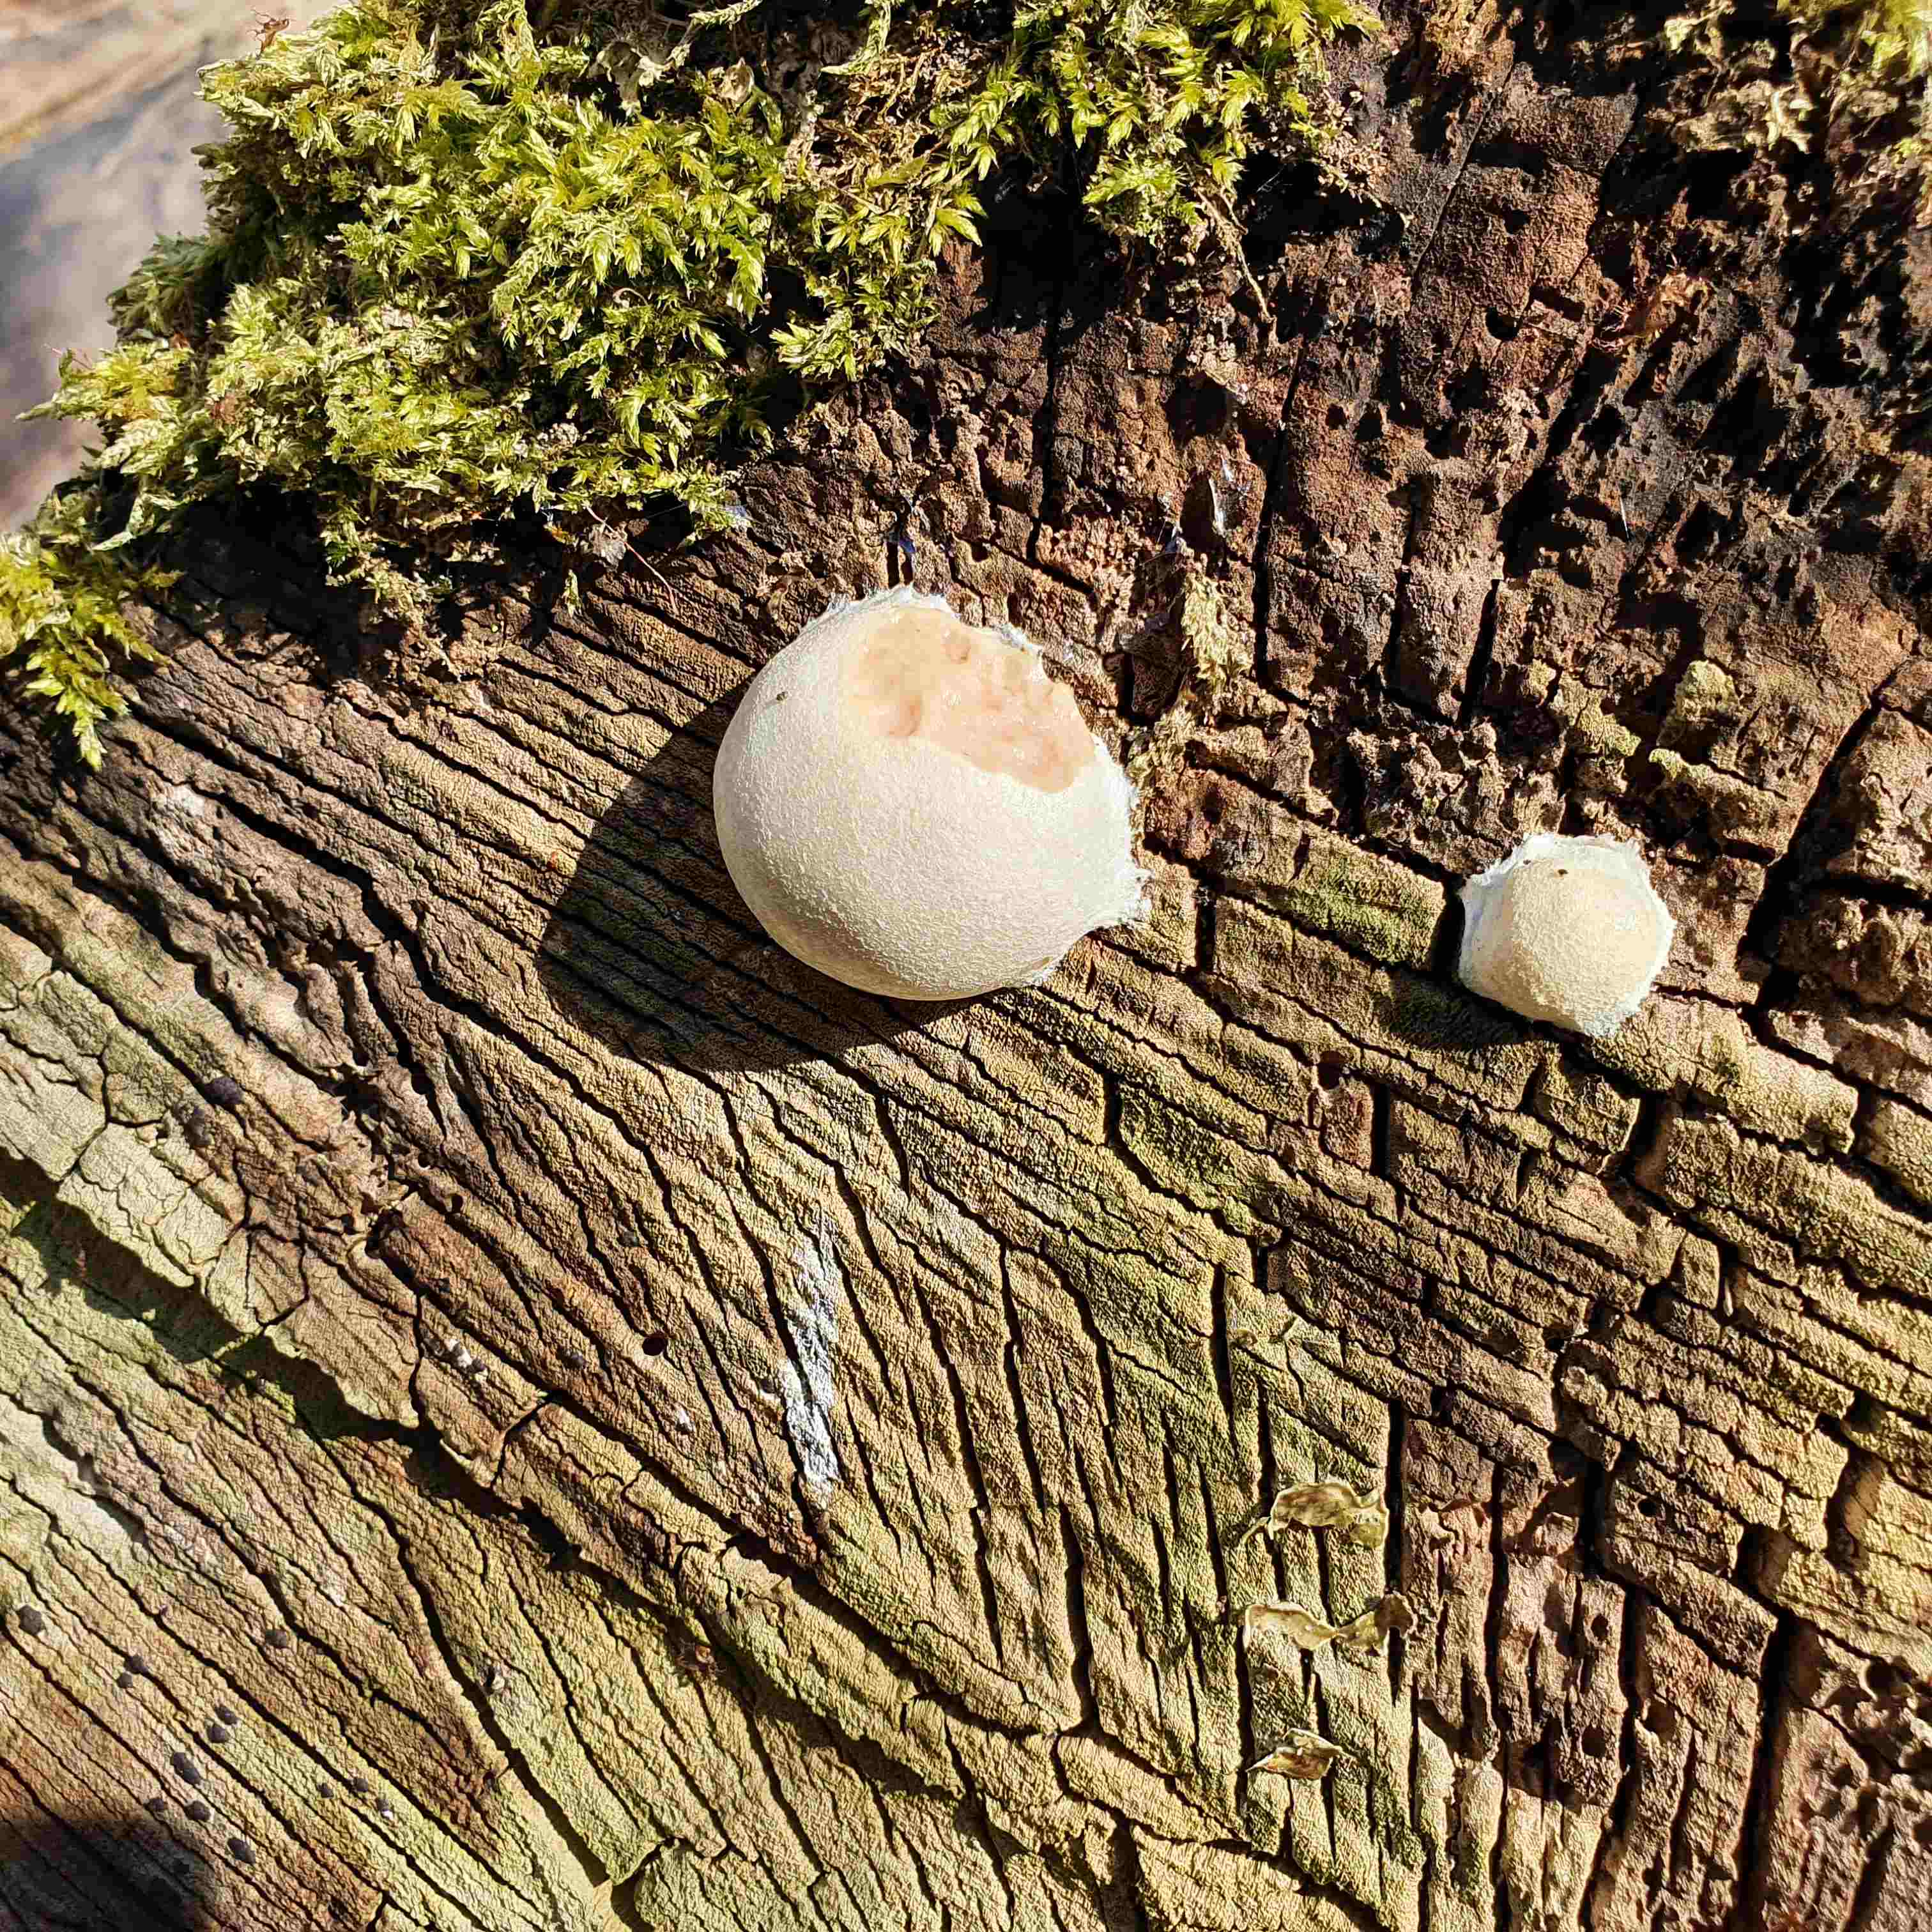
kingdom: Protozoa
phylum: Mycetozoa
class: Myxomycetes
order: Cribrariales
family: Tubiferaceae
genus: Reticularia
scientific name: Reticularia lycoperdon
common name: skinnende støvpude
